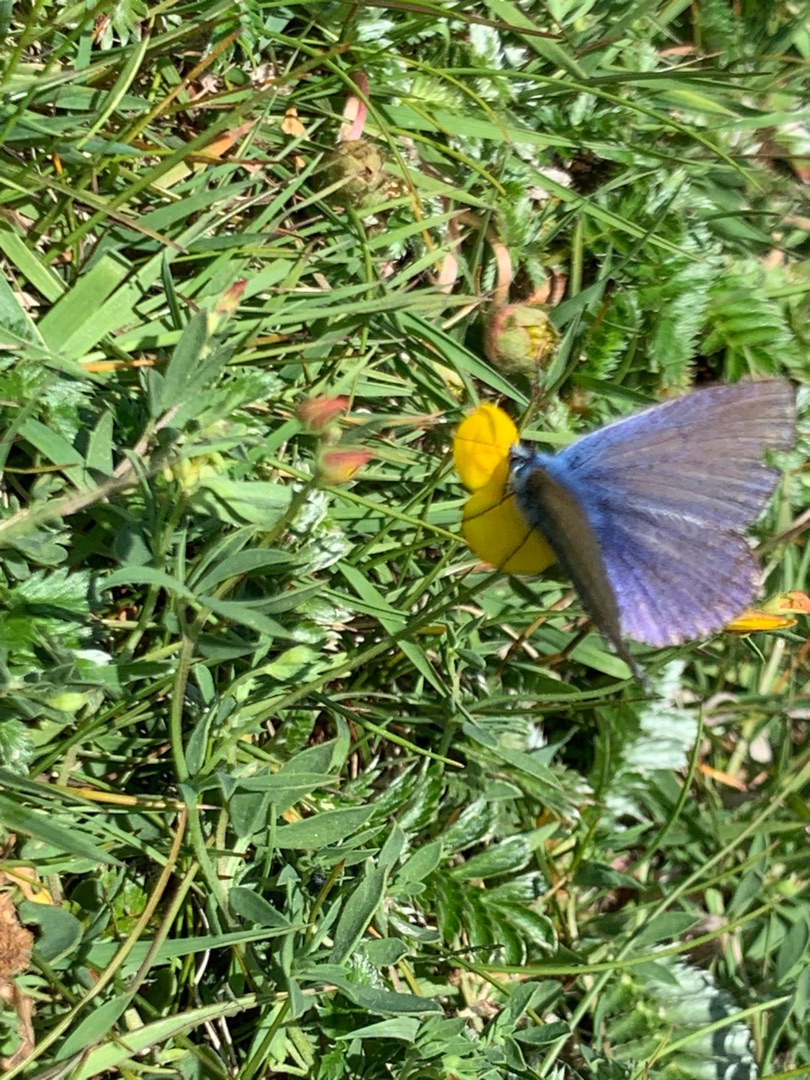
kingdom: Animalia
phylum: Arthropoda
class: Insecta
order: Lepidoptera
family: Lycaenidae
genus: Polyommatus
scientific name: Polyommatus icarus
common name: Almindelig blåfugl
